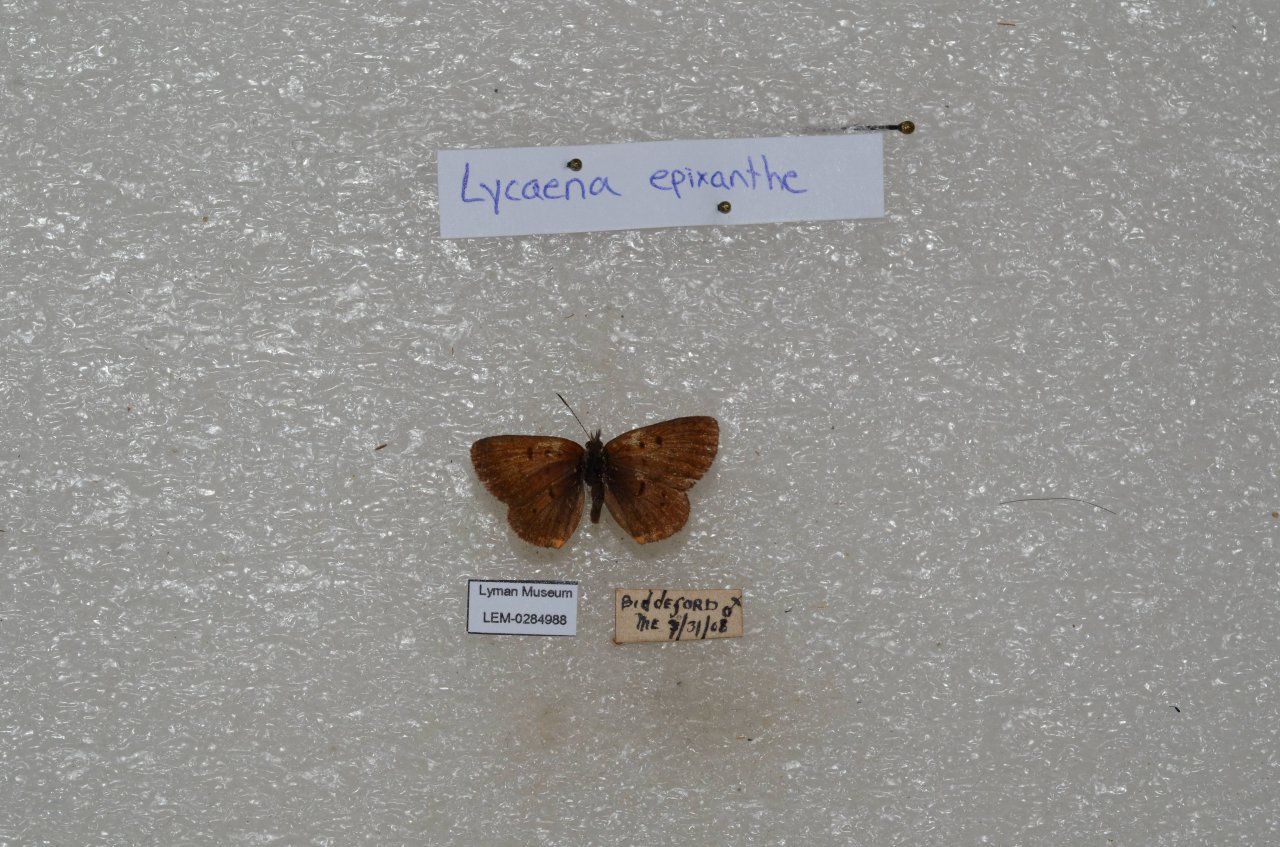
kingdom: Animalia
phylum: Arthropoda
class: Insecta
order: Lepidoptera
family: Sesiidae
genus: Sesia
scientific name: Sesia Lycaena epixanthe
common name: Bog Copper
